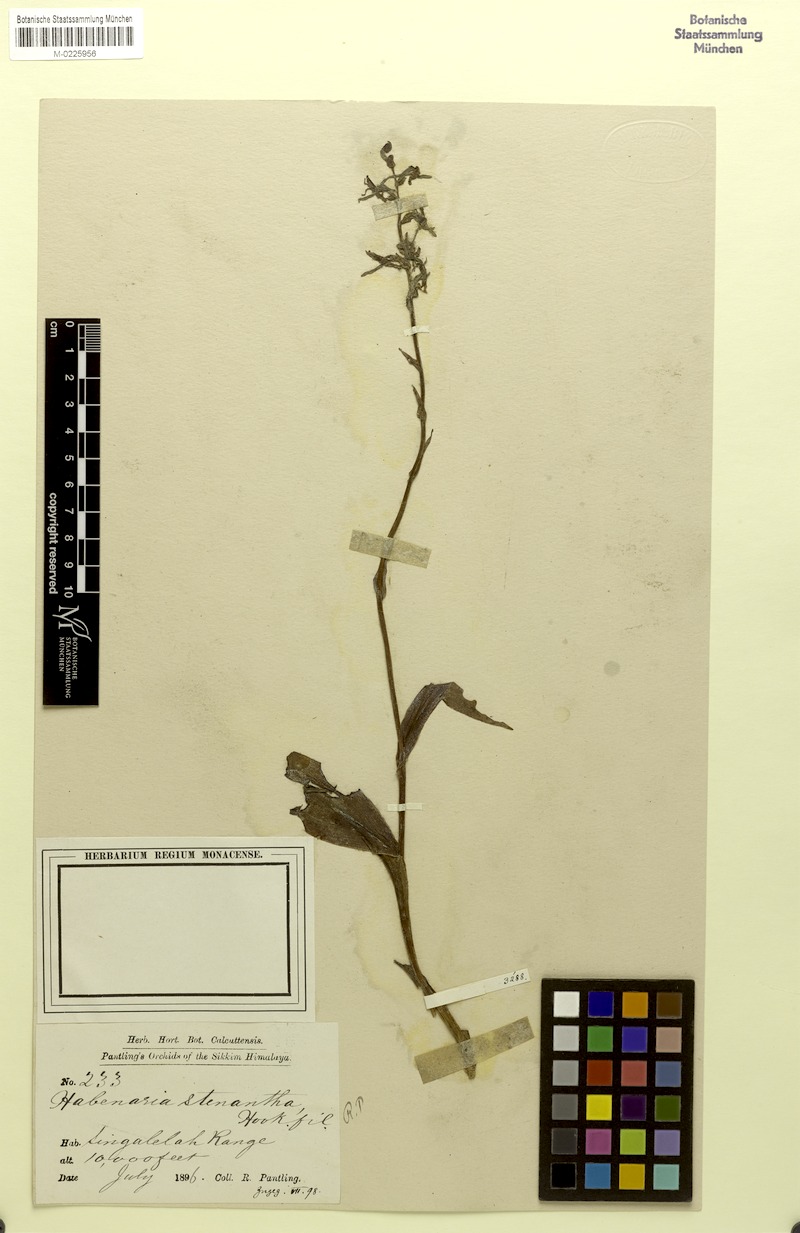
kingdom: Plantae
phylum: Tracheophyta
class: Liliopsida
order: Asparagales
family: Orchidaceae
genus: Platanthera
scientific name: Platanthera stenantha
